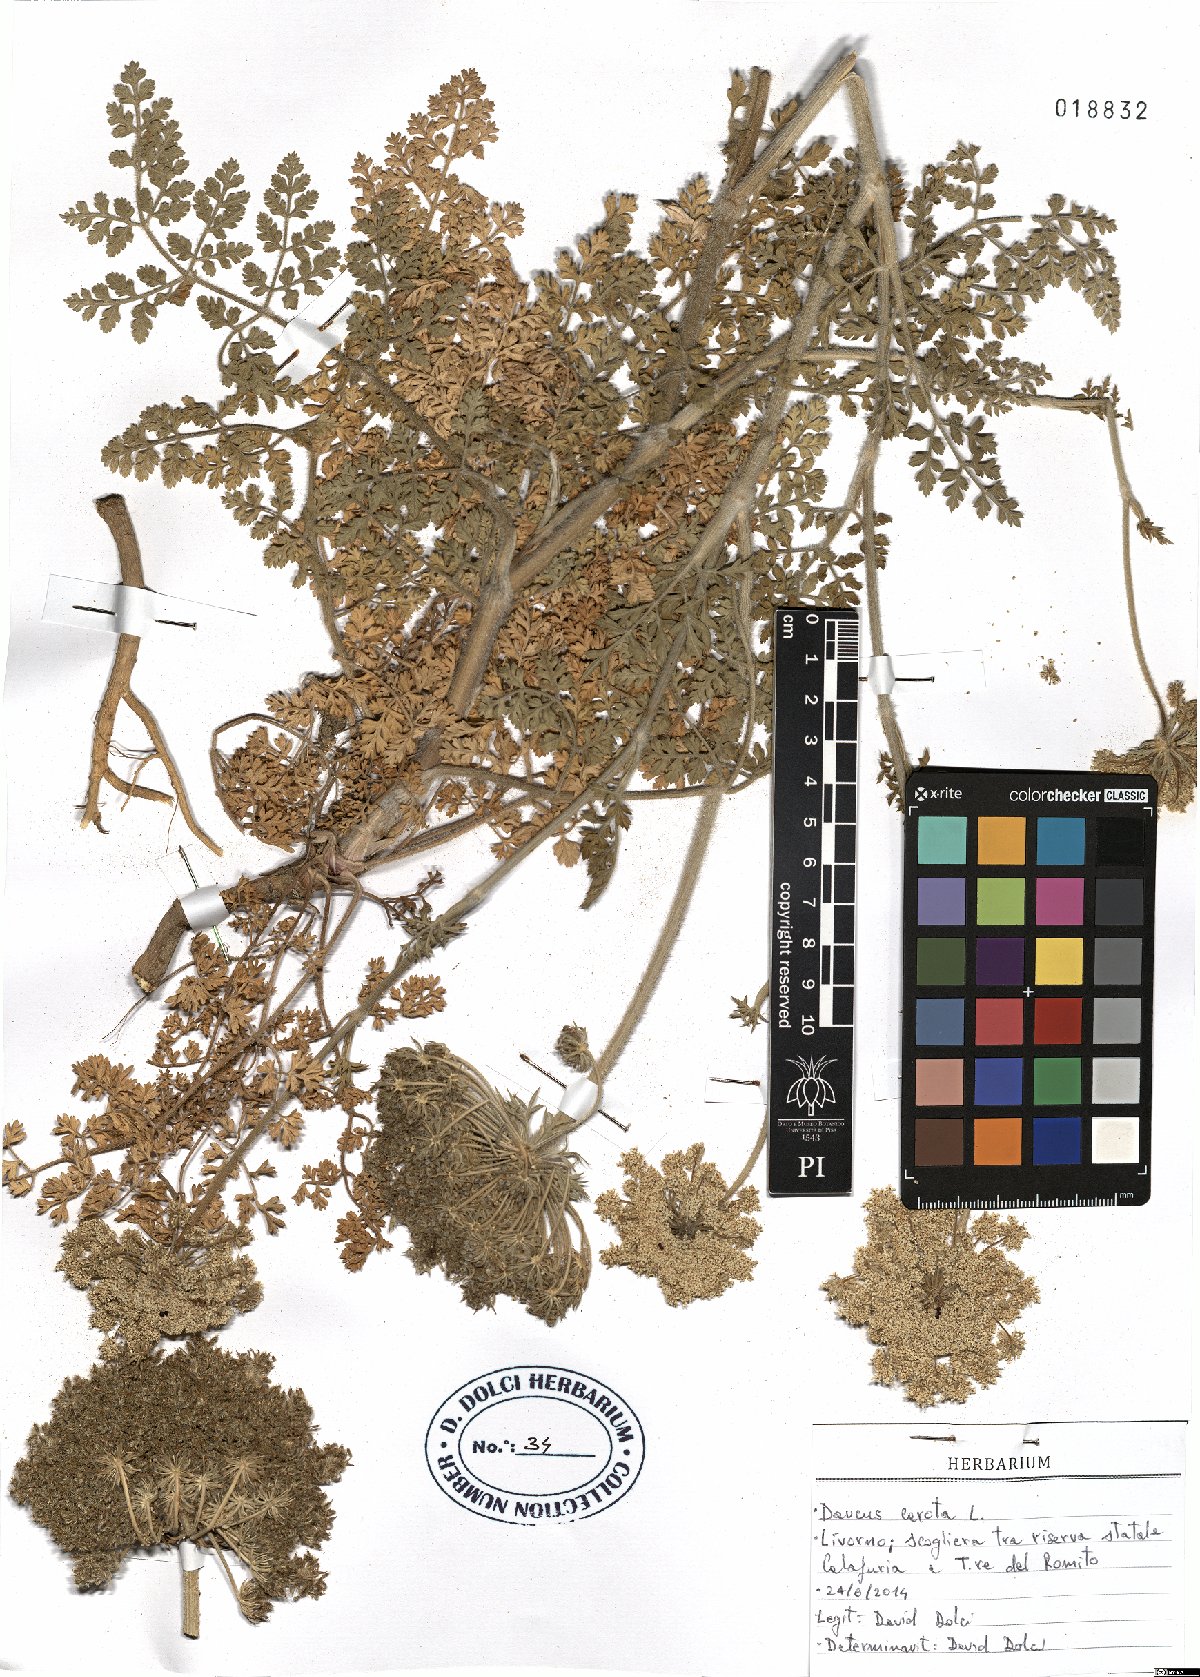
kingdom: Plantae
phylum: Tracheophyta
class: Magnoliopsida
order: Apiales
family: Apiaceae
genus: Daucus
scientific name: Daucus carota
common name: Wild carrot
